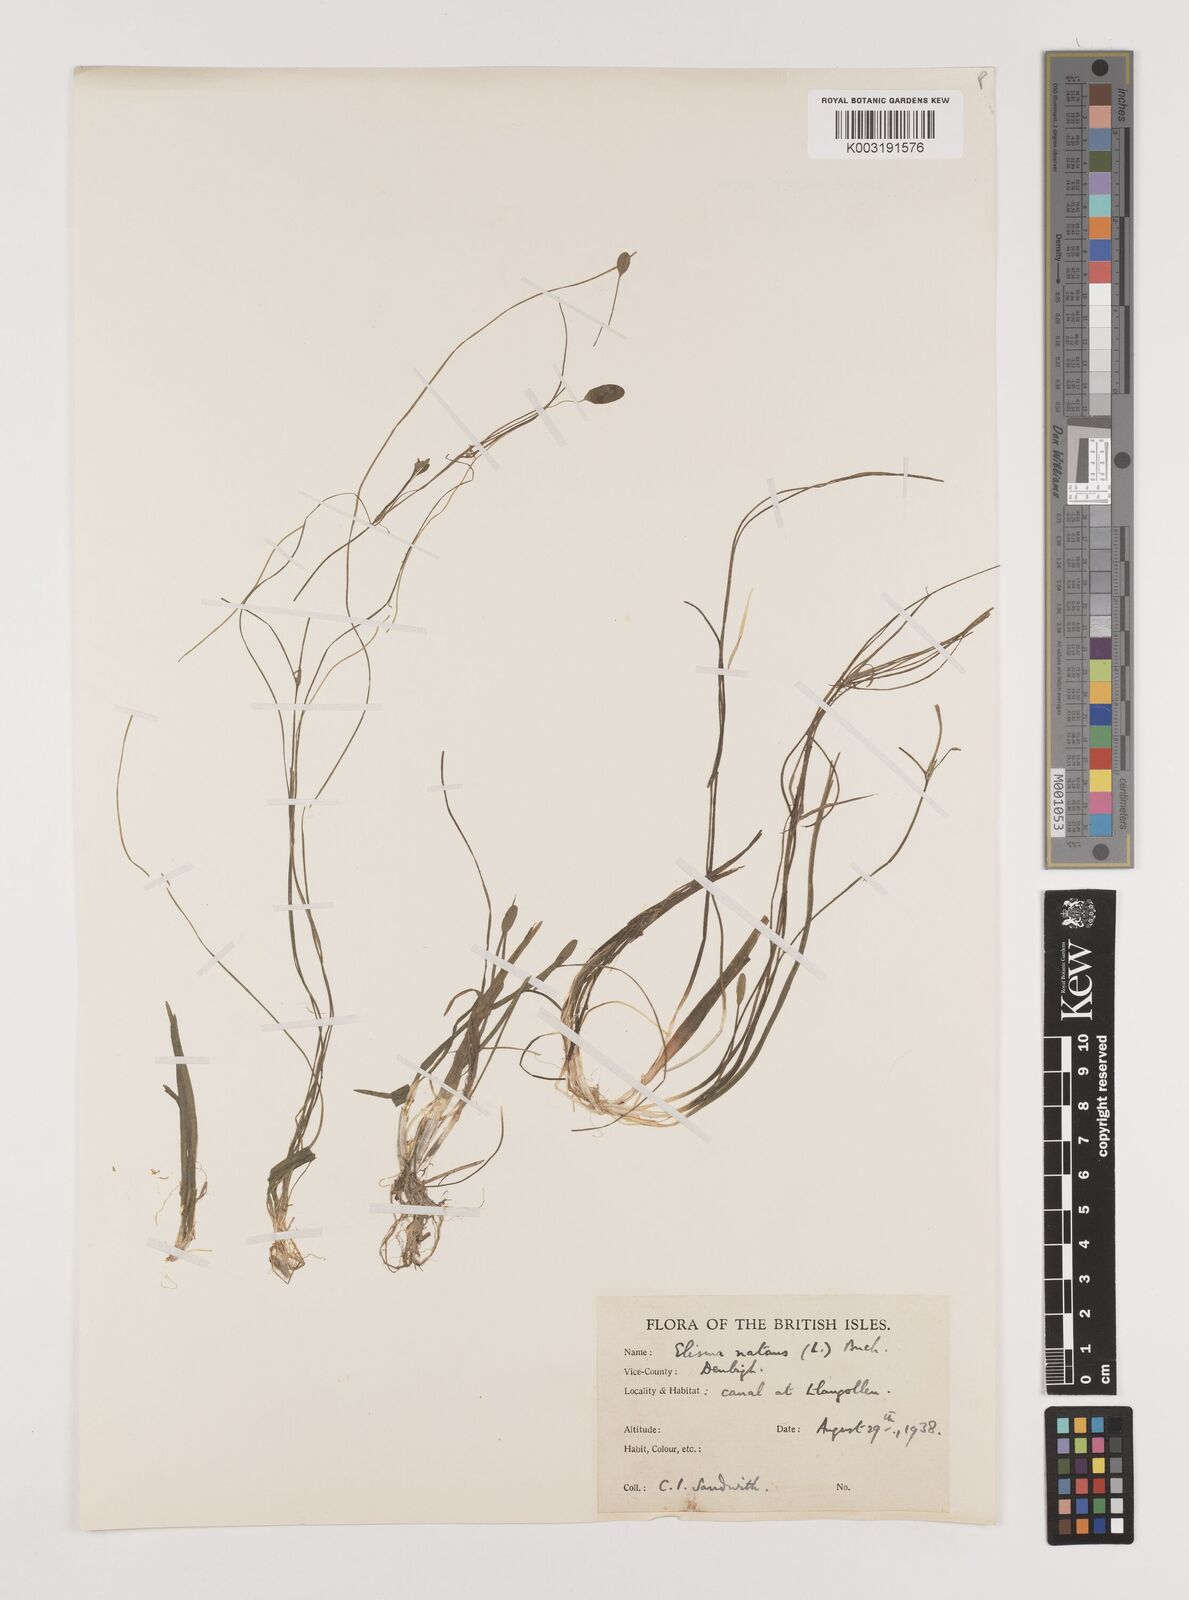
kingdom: Plantae
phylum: Tracheophyta
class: Liliopsida
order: Alismatales
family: Alismataceae
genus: Luronium
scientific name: Luronium natans
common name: Floating water-plantain
